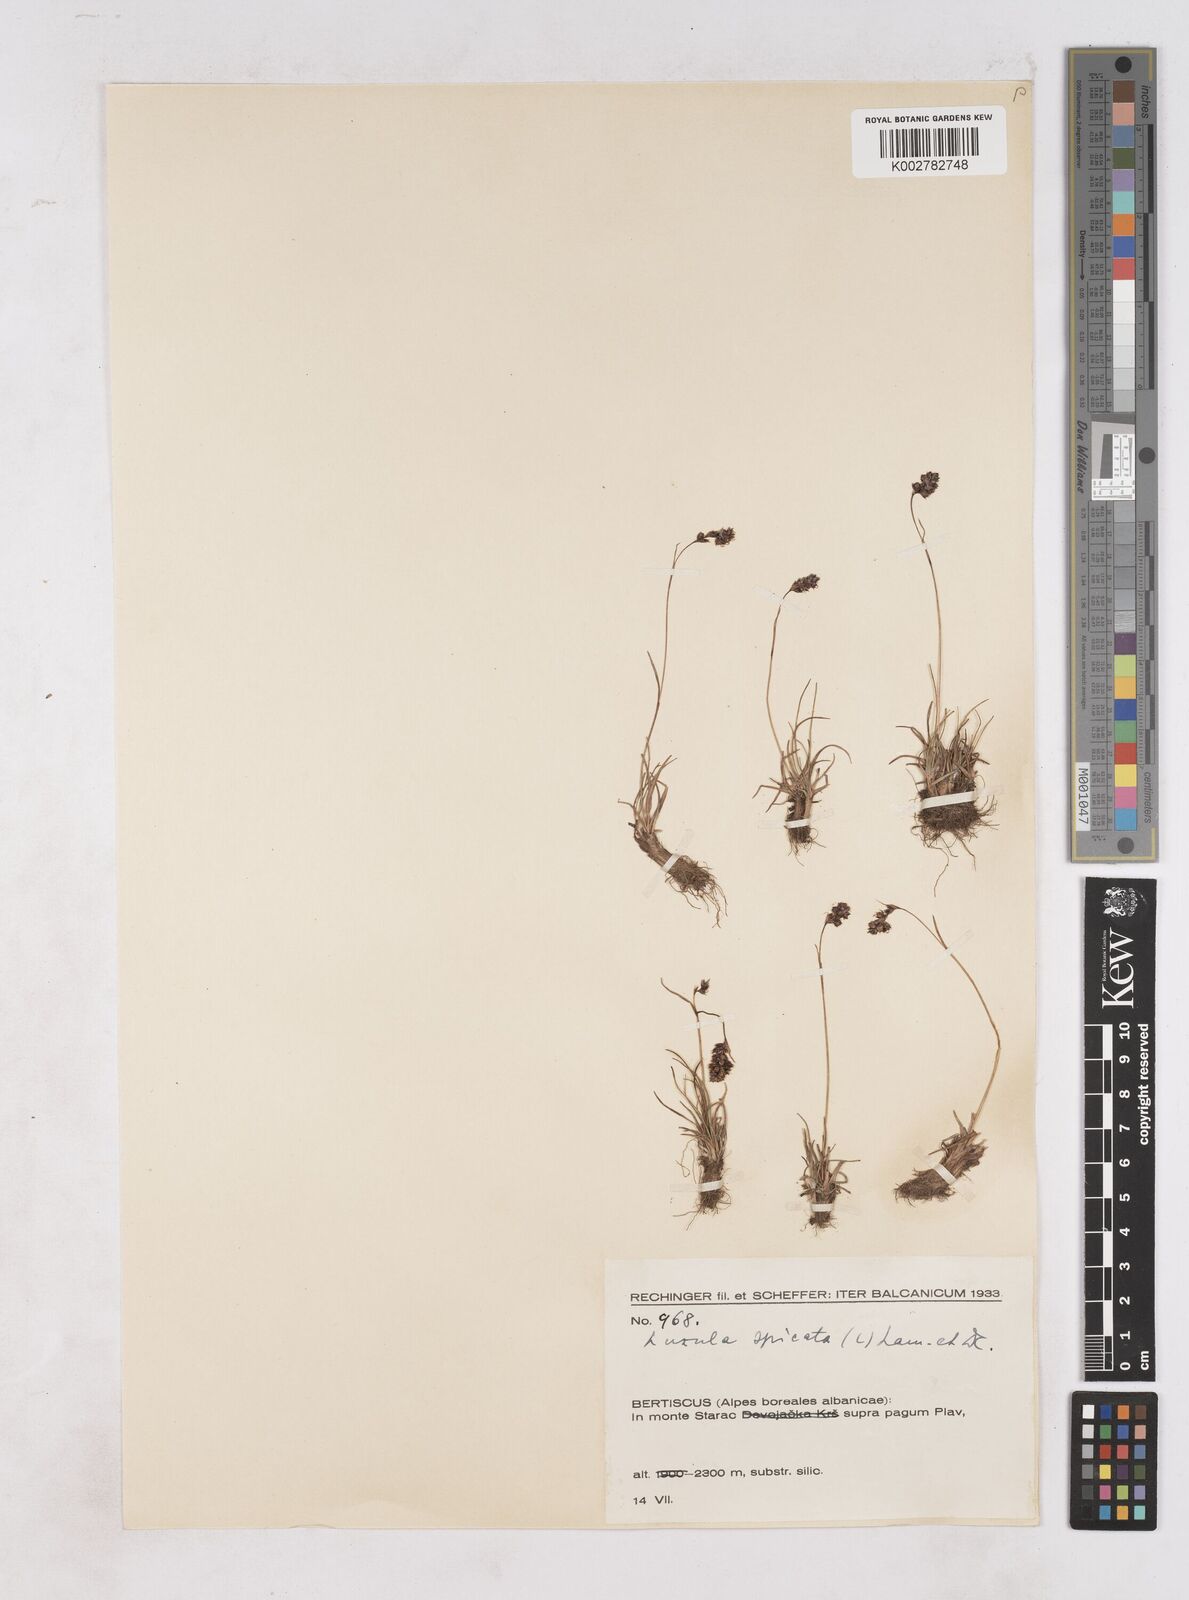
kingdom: Plantae
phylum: Tracheophyta
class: Liliopsida
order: Poales
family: Juncaceae
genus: Luzula
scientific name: Luzula spicata
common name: Spiked wood-rush
